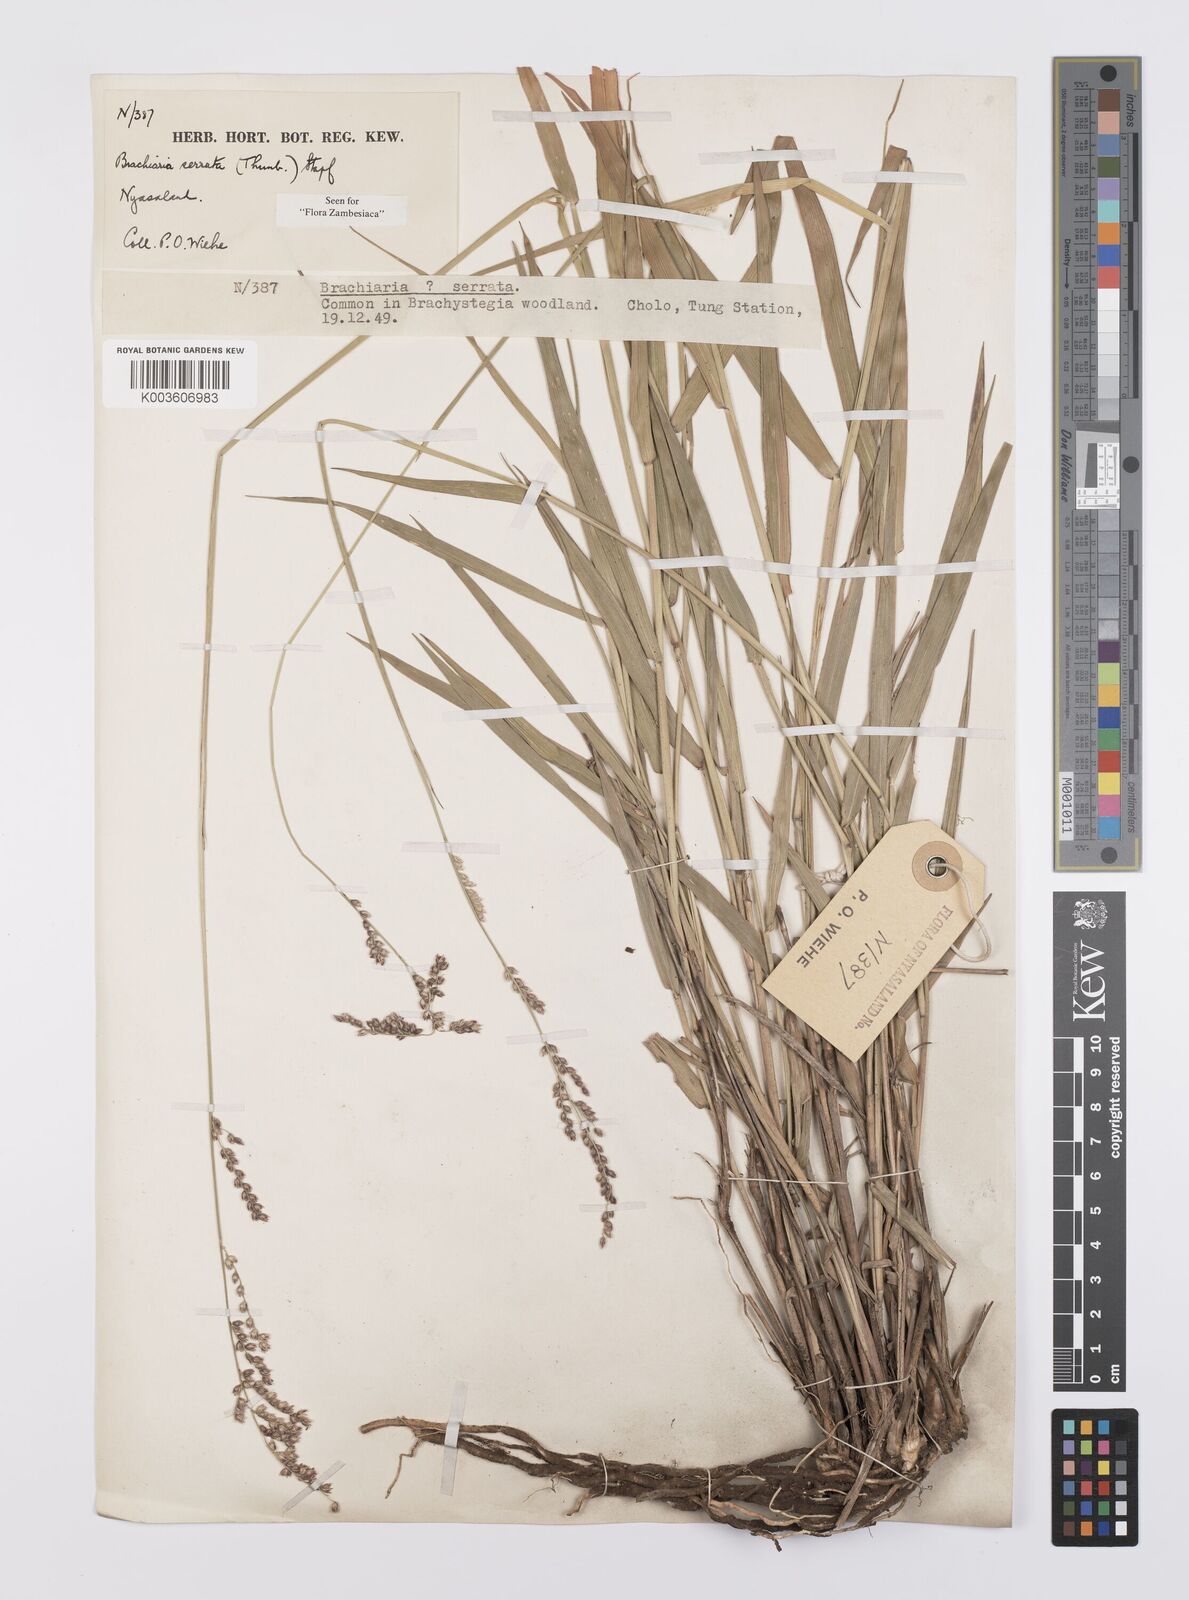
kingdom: Plantae
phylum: Tracheophyta
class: Liliopsida
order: Poales
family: Poaceae
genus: Urochloa
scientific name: Urochloa serrata
